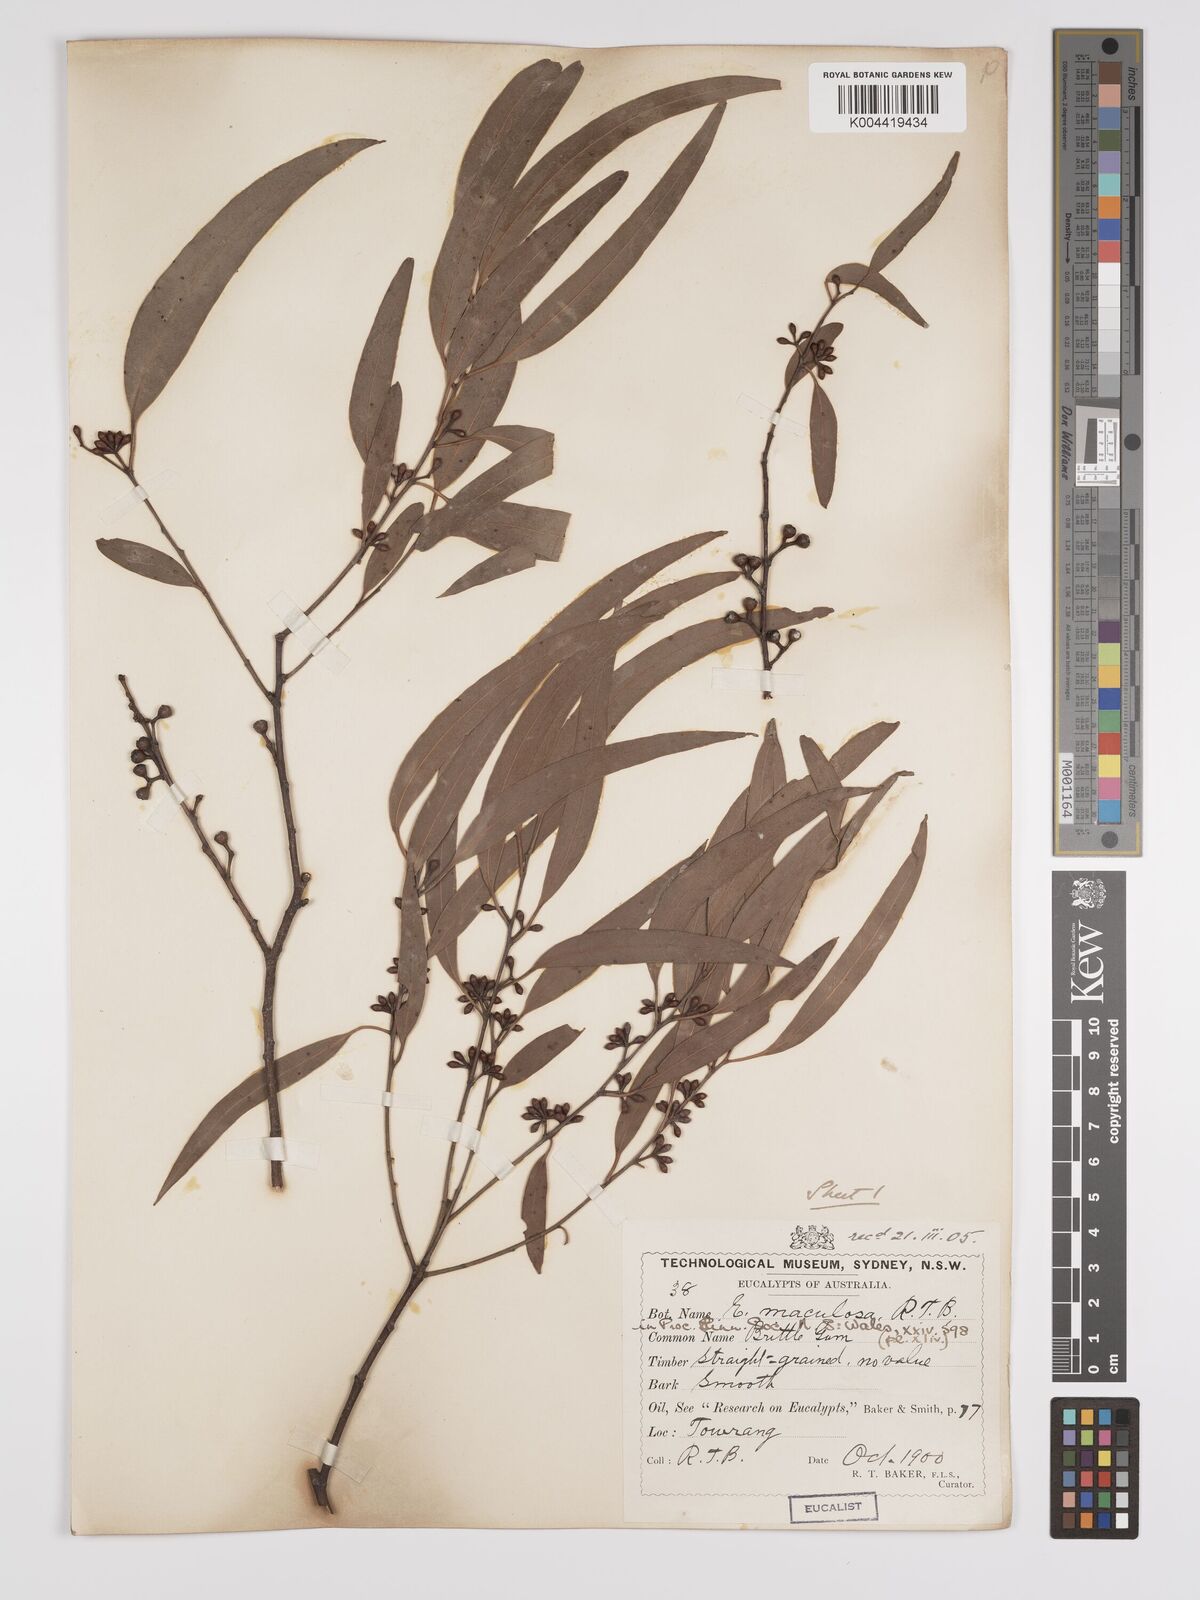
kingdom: Plantae
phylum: Tracheophyta
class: Magnoliopsida
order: Myrtales
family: Myrtaceae
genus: Eucalyptus
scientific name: Eucalyptus mannifera
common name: Manna gum
